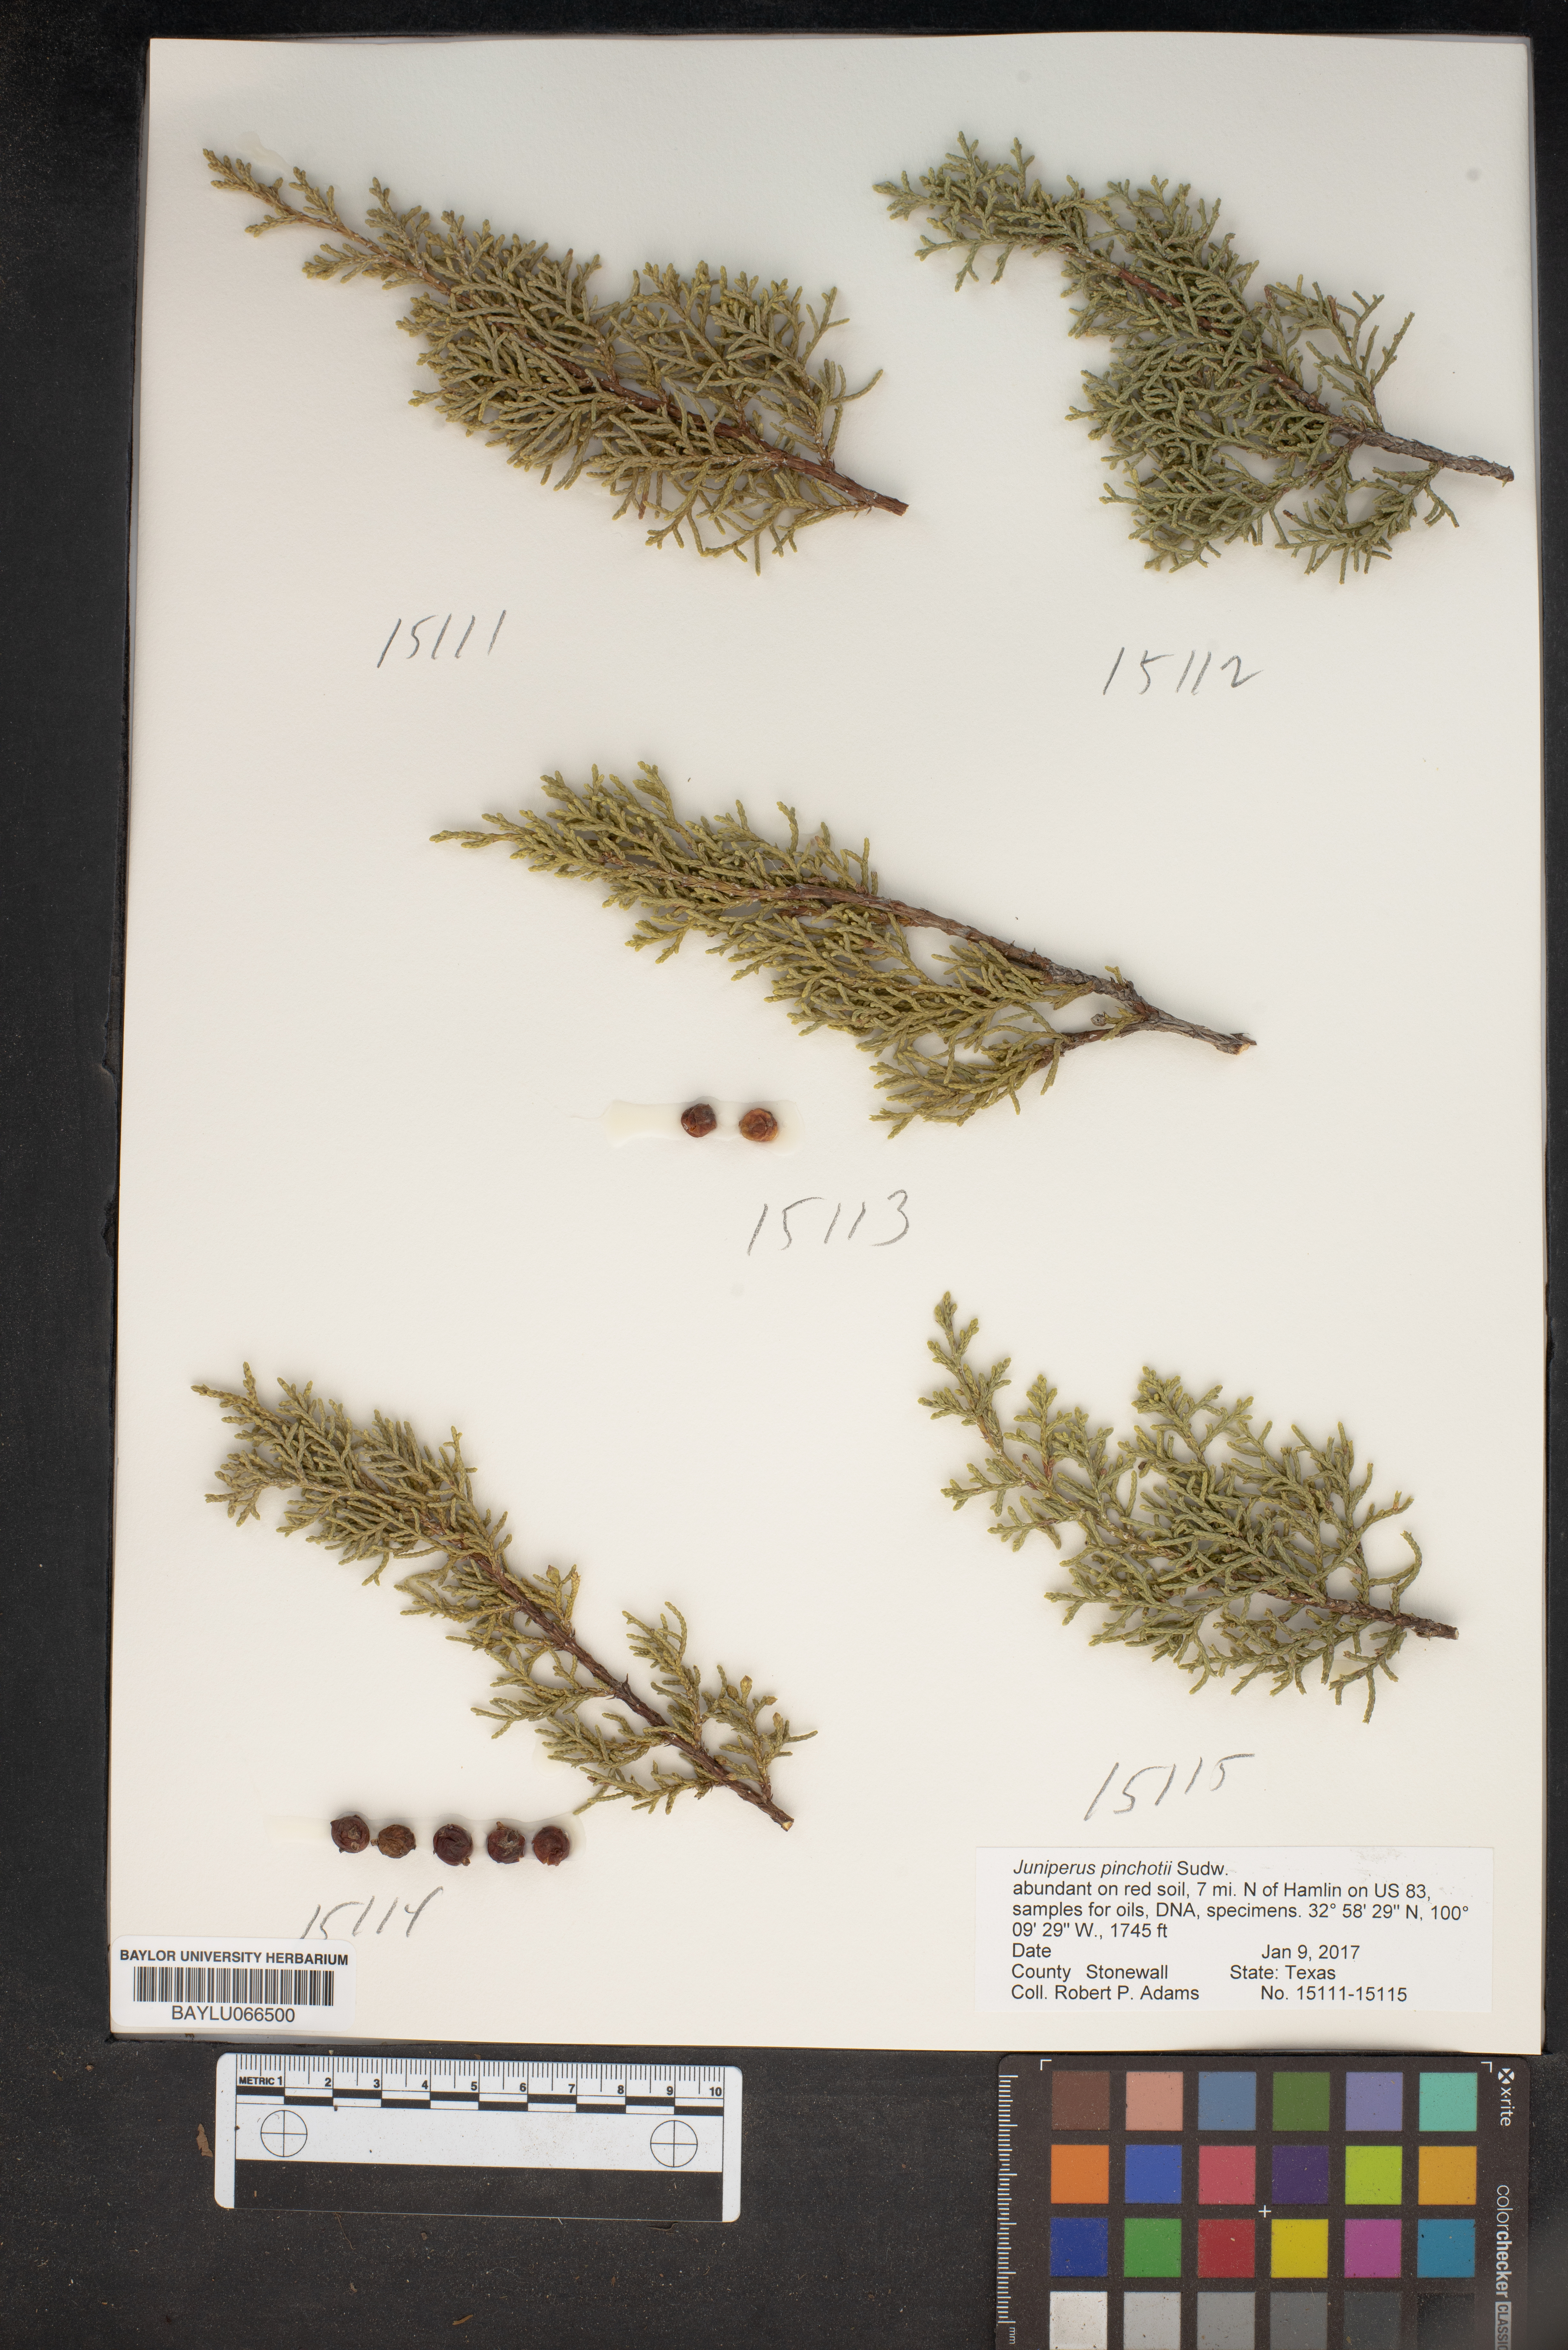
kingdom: Plantae
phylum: Tracheophyta
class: Pinopsida
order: Pinales
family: Cupressaceae
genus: Juniperus
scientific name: Juniperus pinchotii
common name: Pinchot juniper
